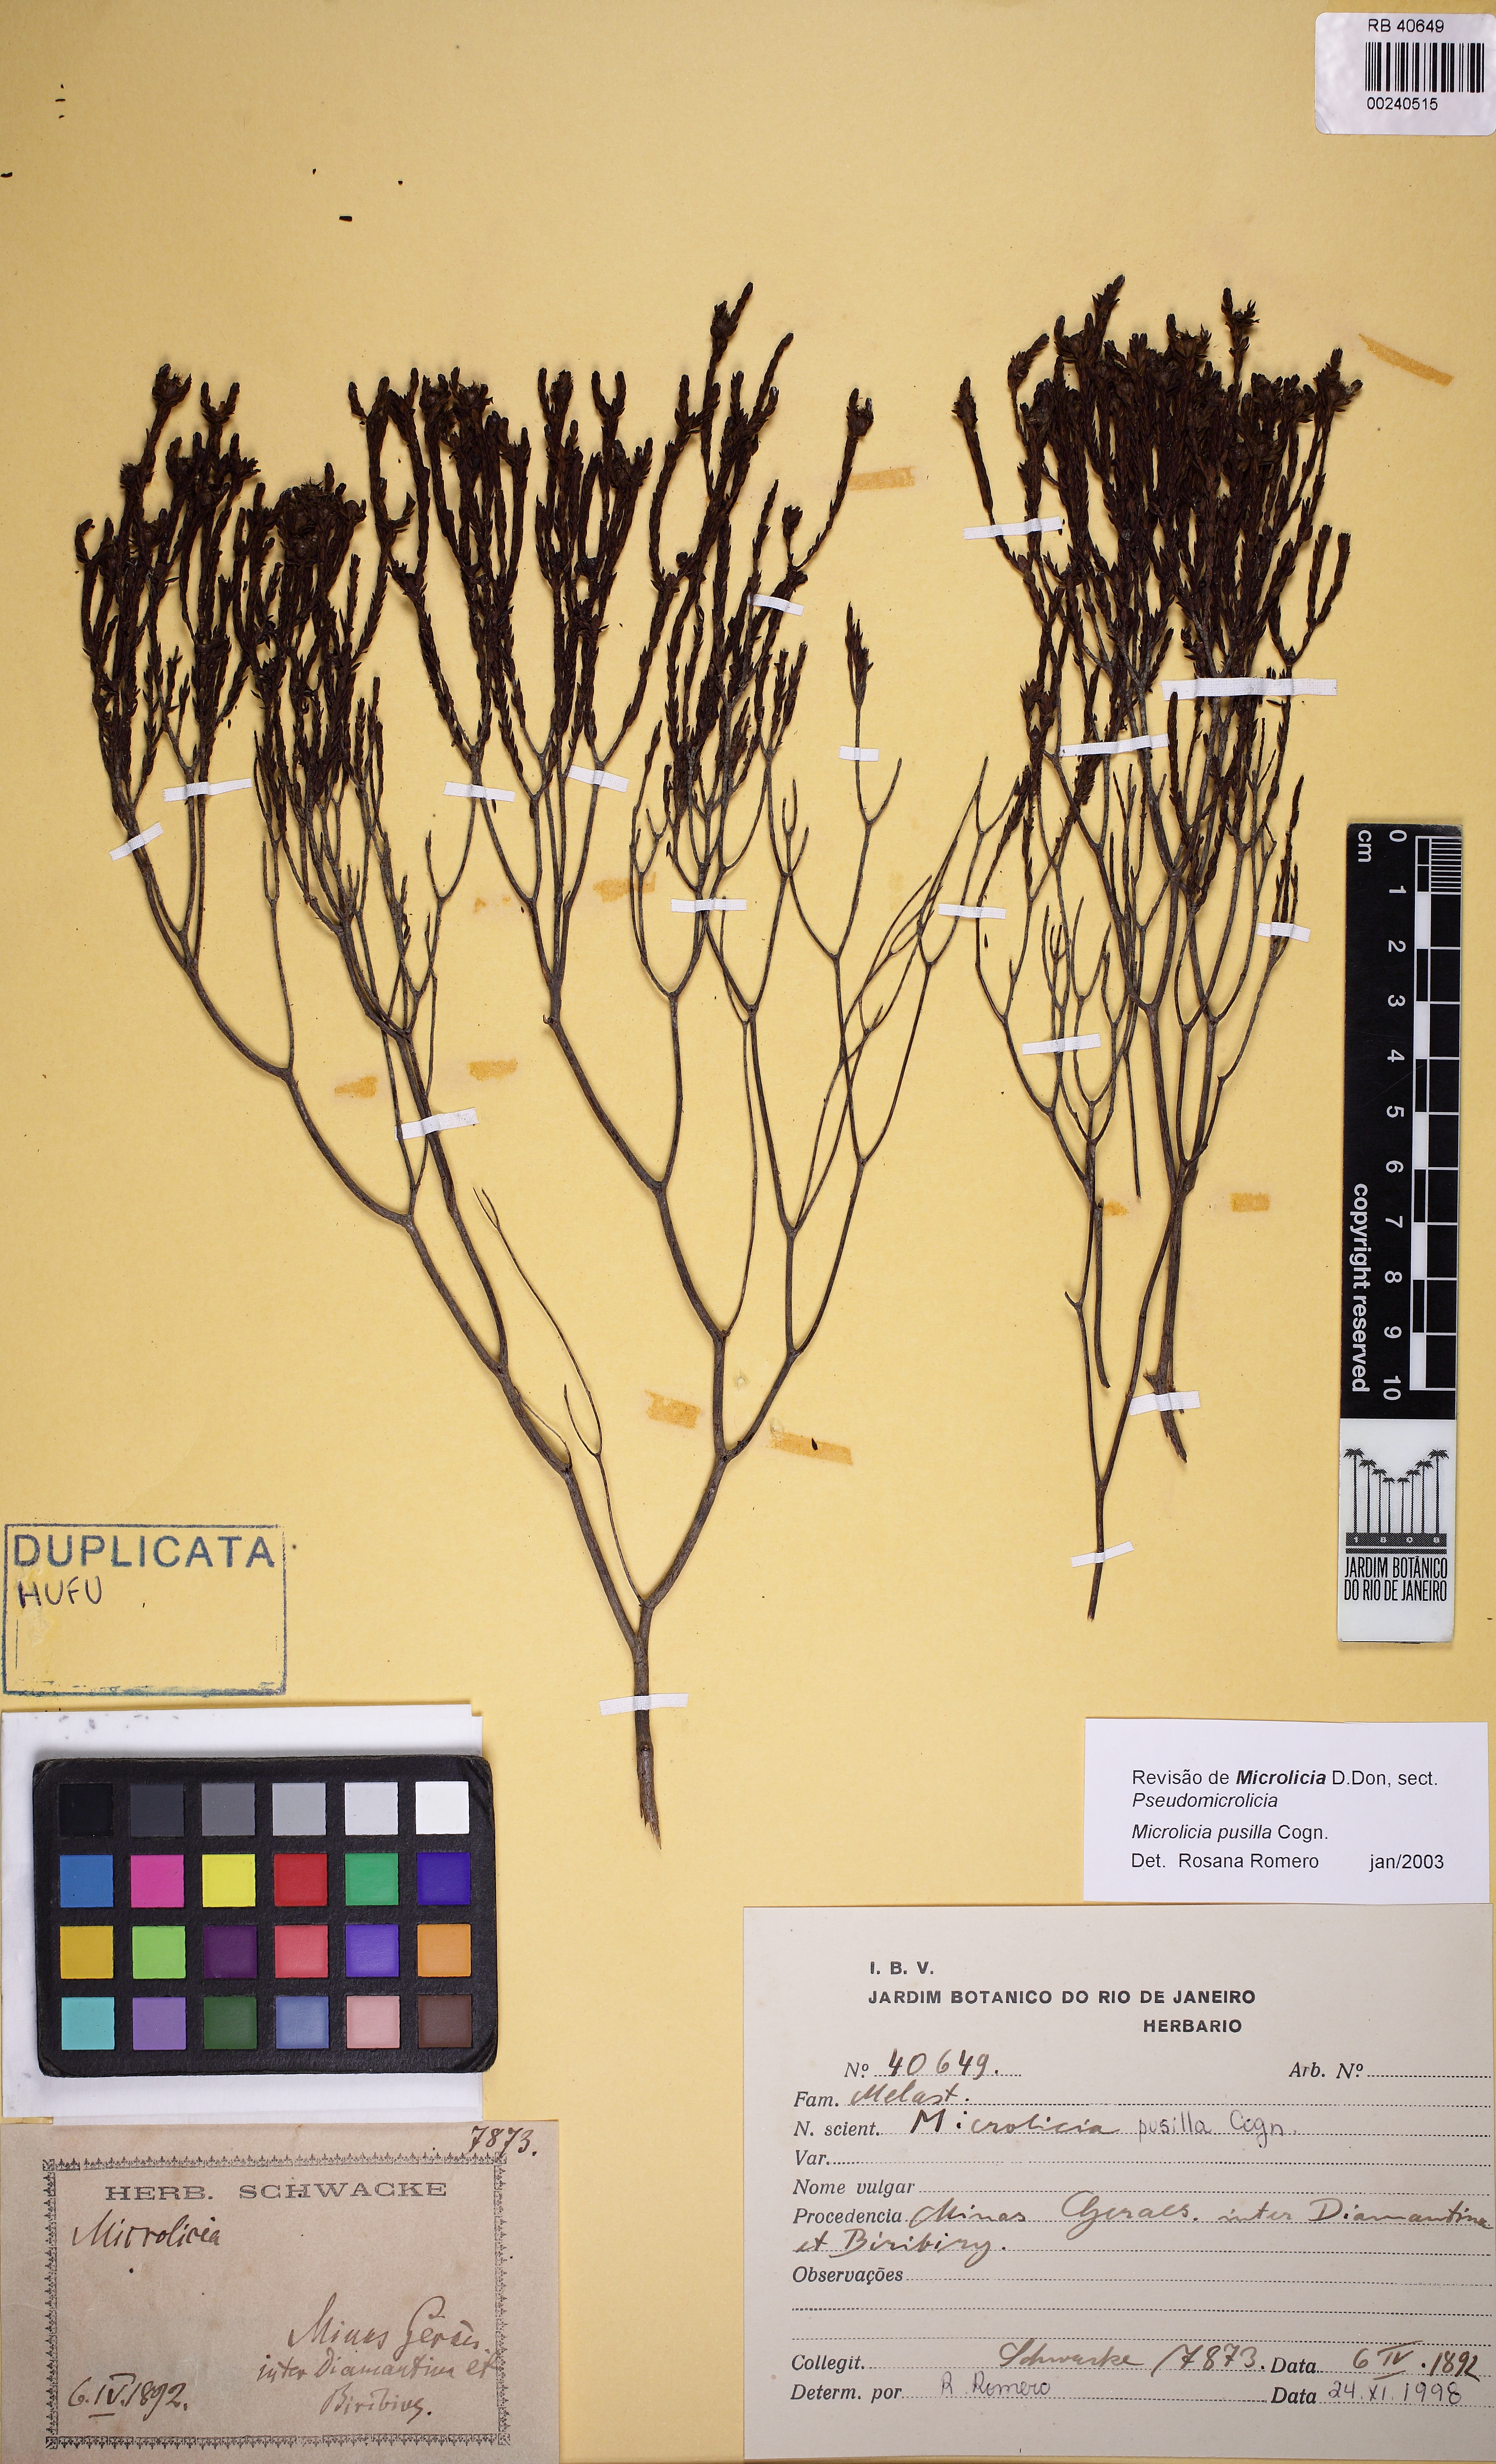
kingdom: Plantae
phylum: Tracheophyta
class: Magnoliopsida
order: Myrtales
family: Melastomataceae
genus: Microlicia
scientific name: Microlicia pusilla
